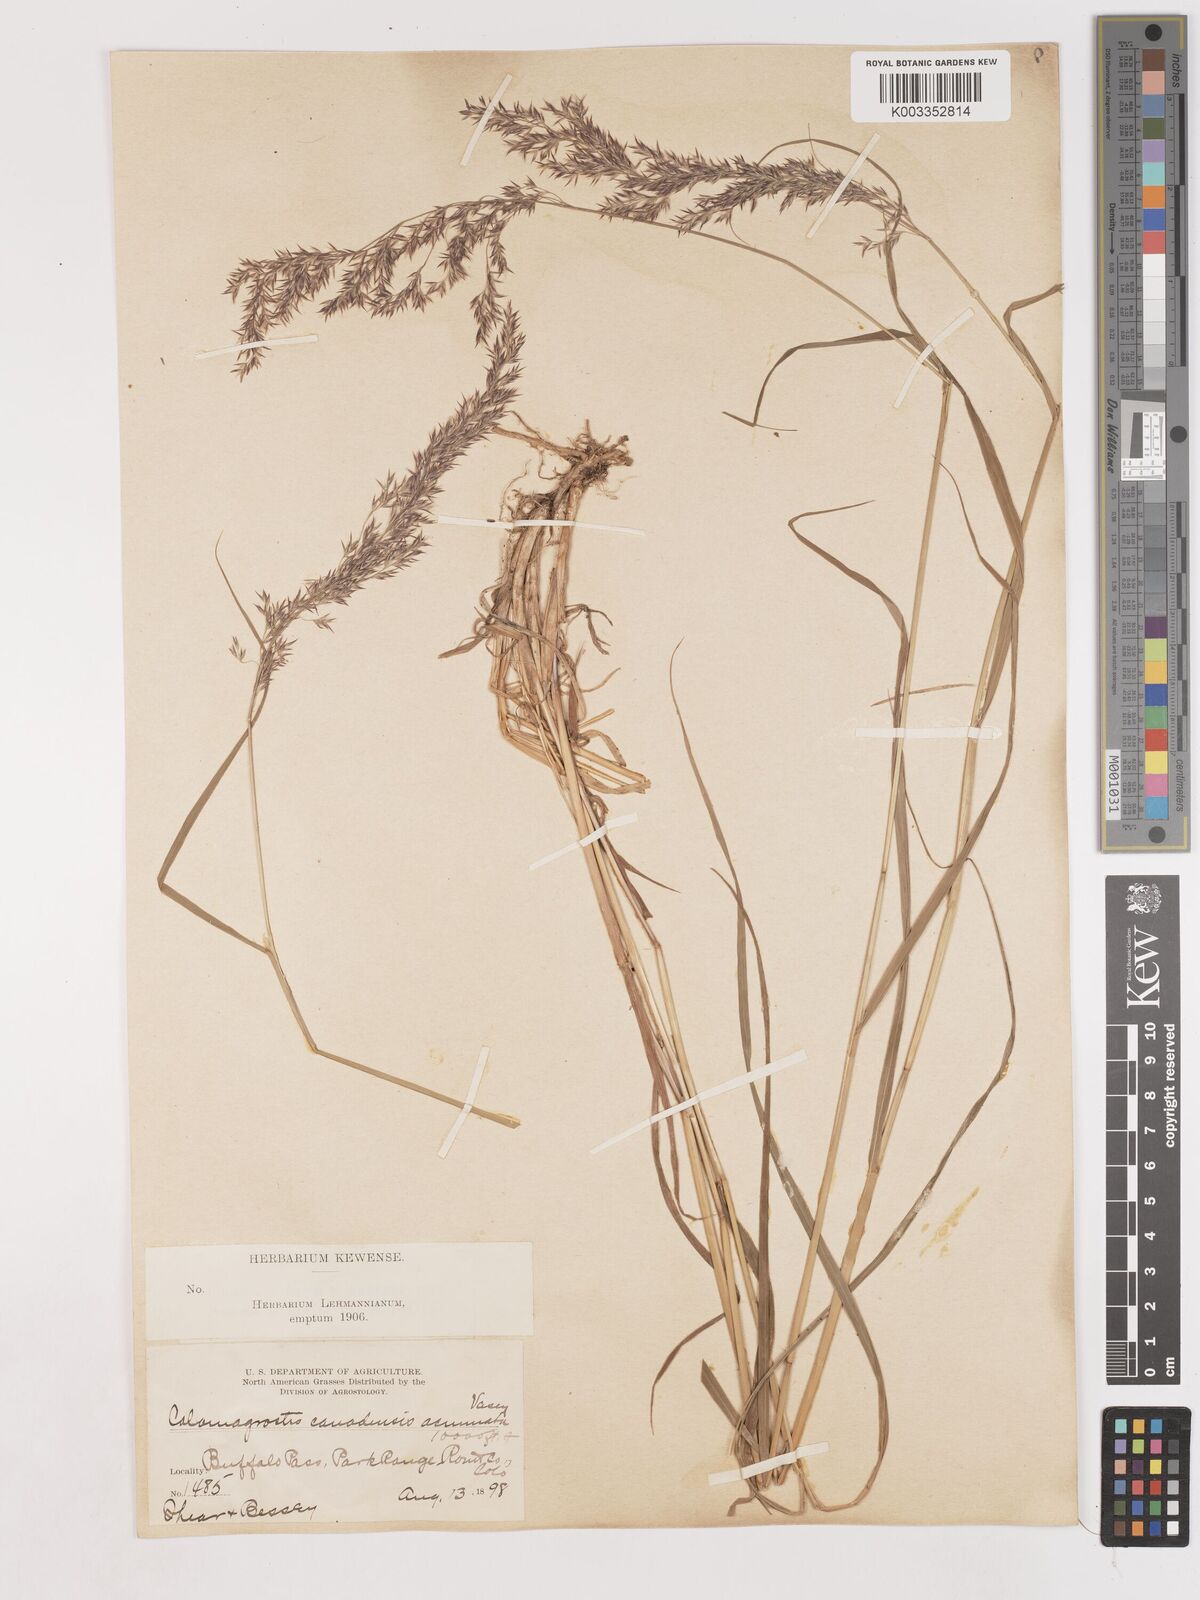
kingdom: Plantae
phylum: Tracheophyta
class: Liliopsida
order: Poales
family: Poaceae
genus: Calamagrostis
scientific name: Calamagrostis canadensis
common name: Canada bluejoint
